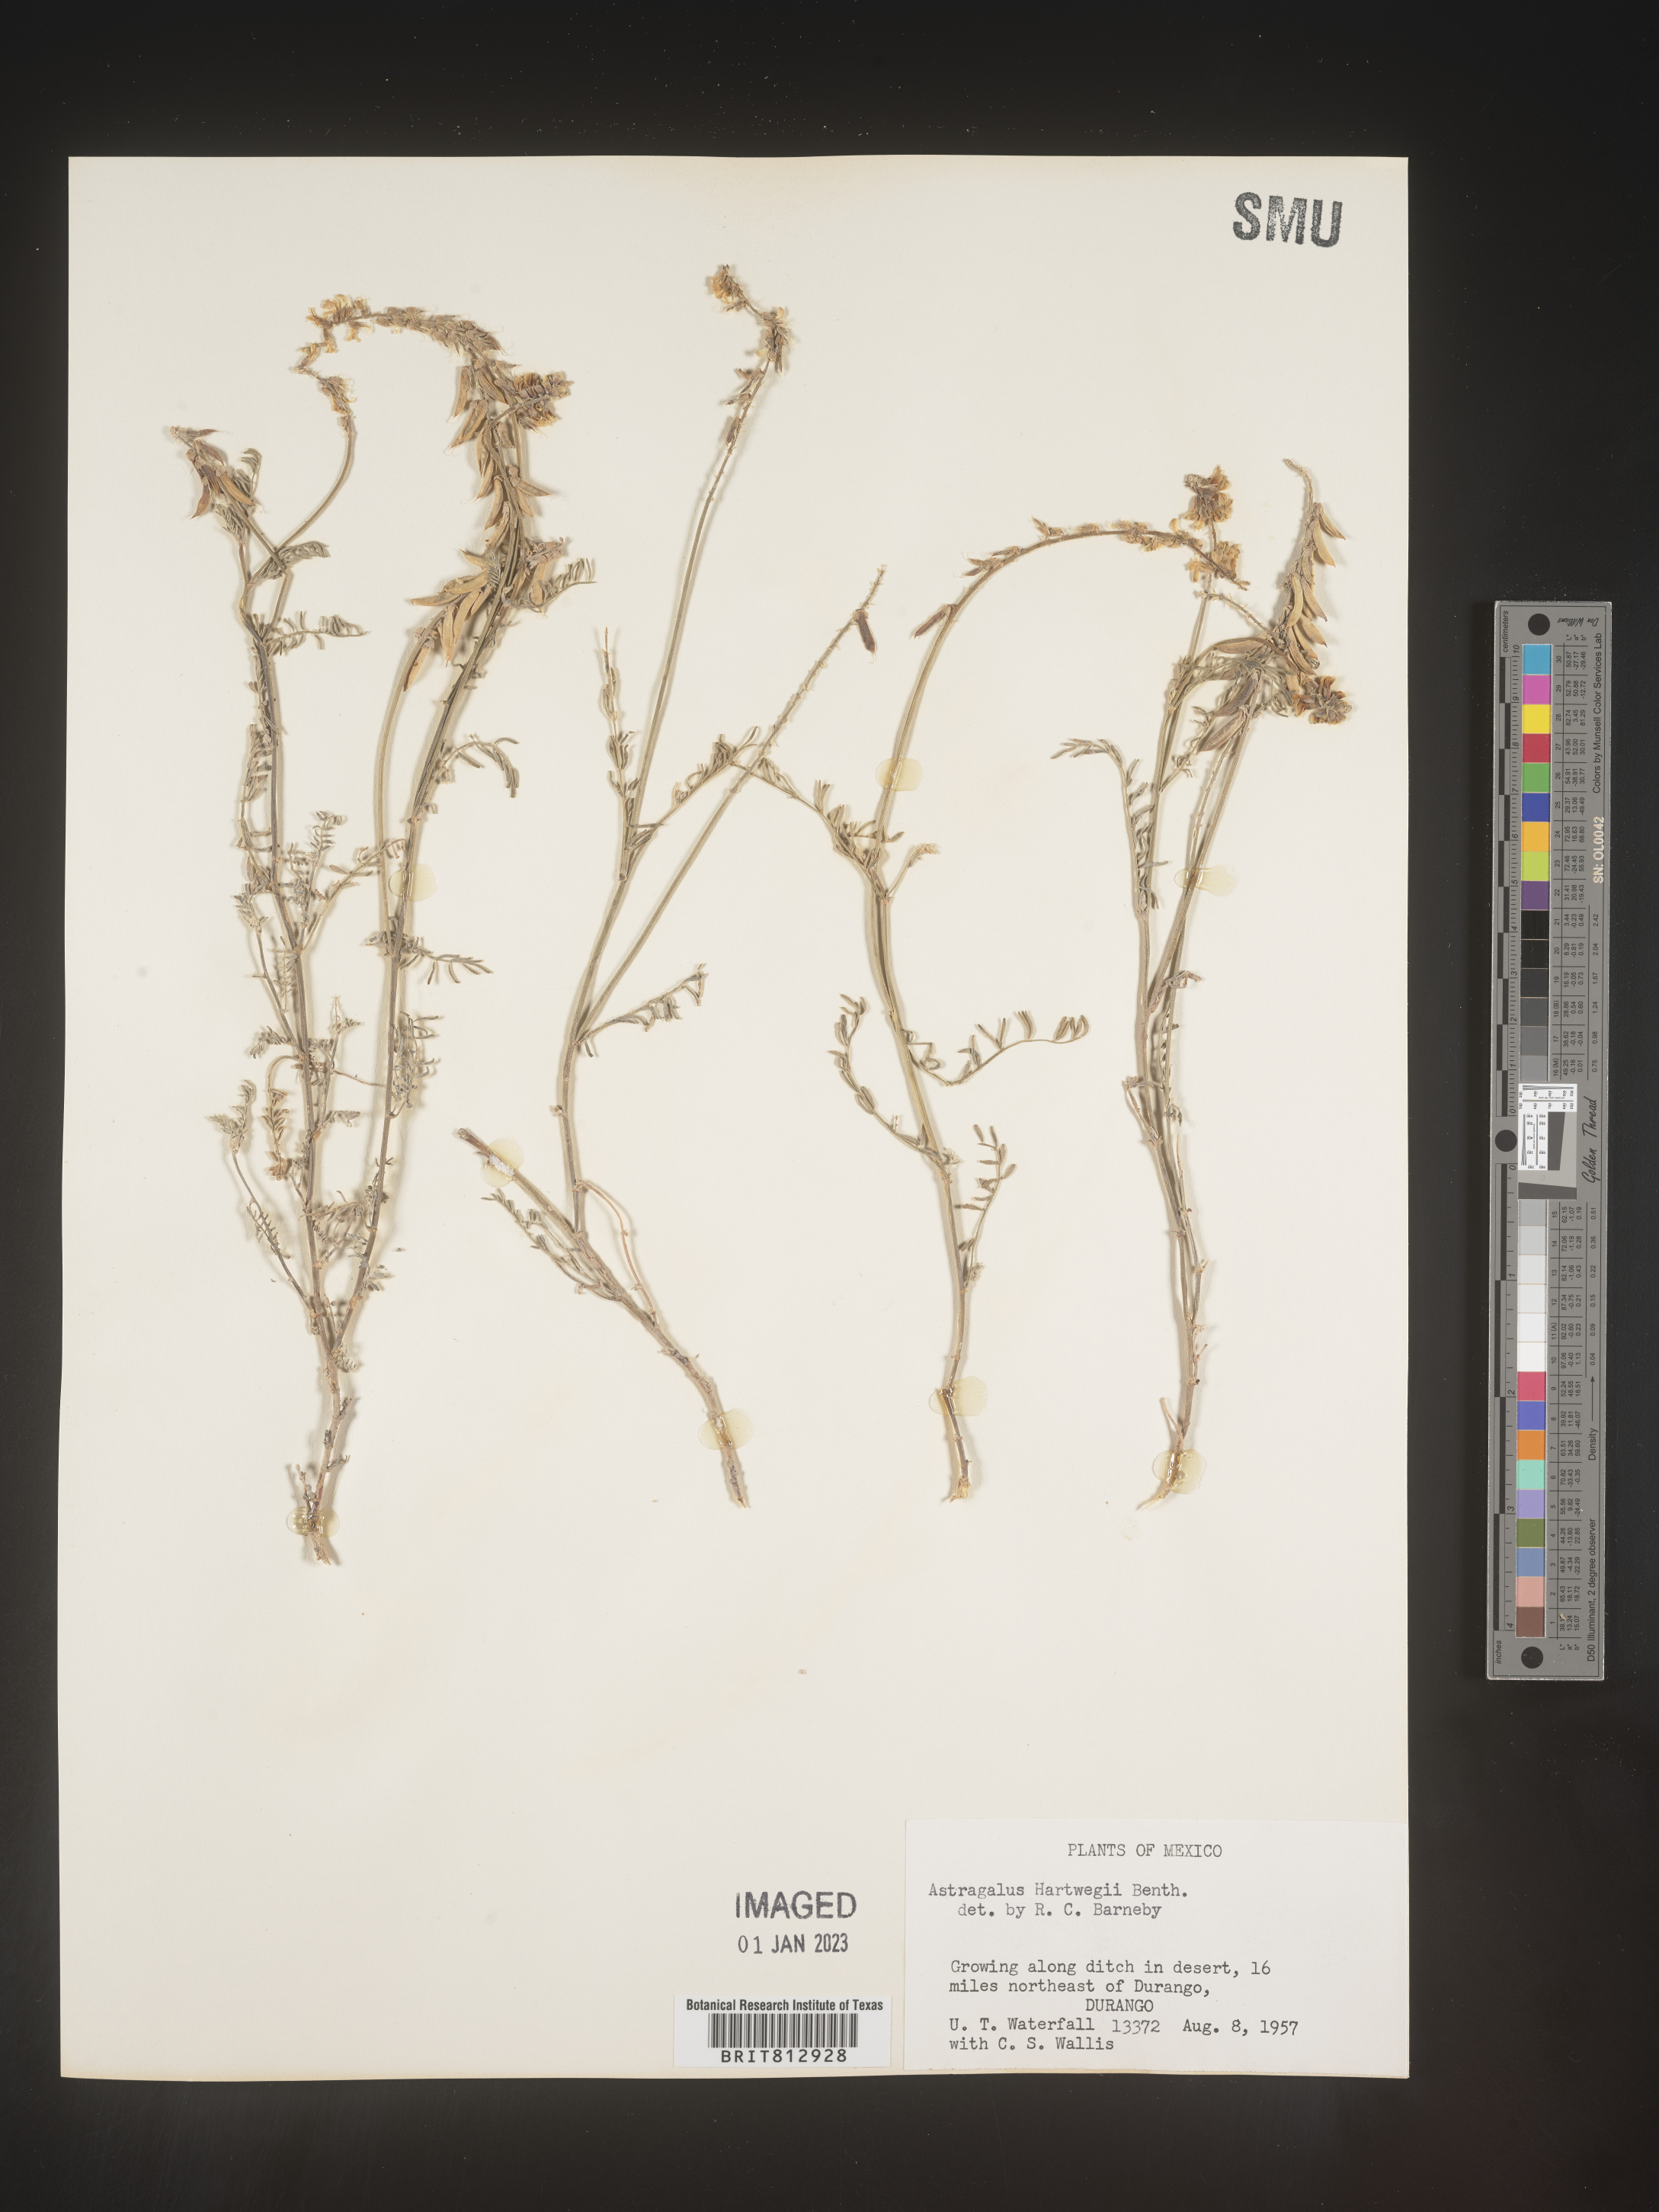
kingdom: Plantae
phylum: Tracheophyta
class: Magnoliopsida
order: Fabales
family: Fabaceae
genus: Astragalus
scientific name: Astragalus
